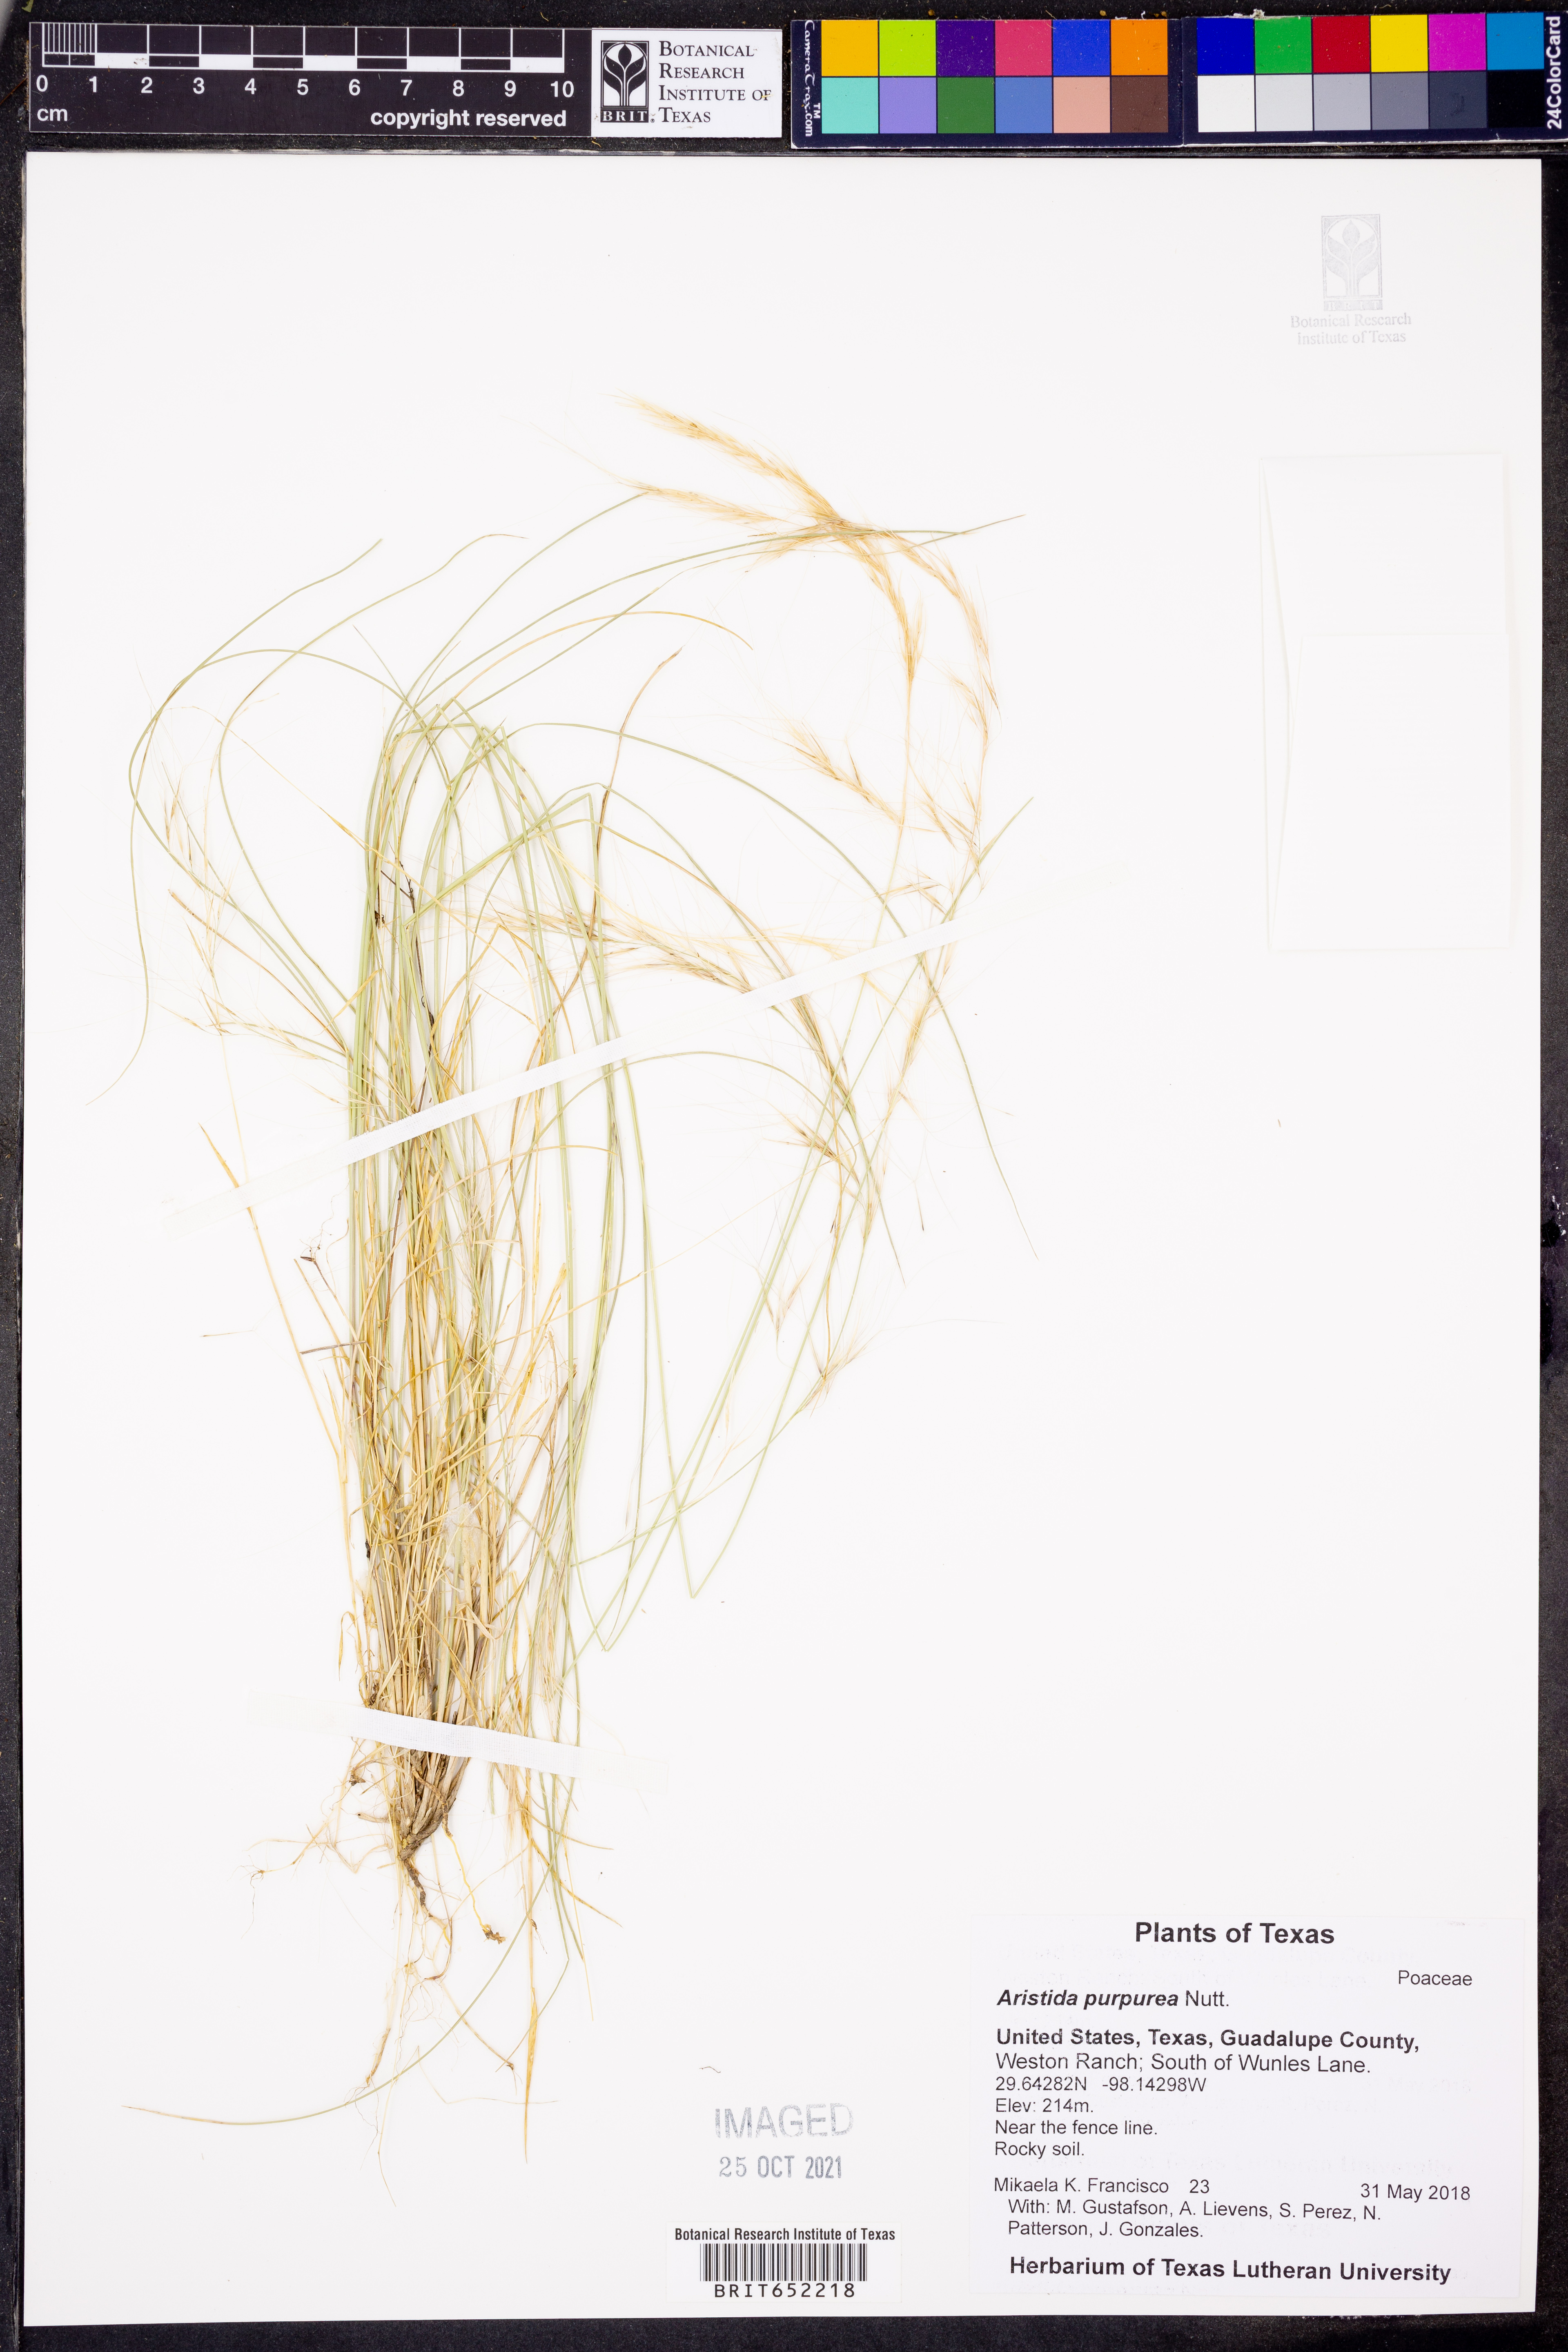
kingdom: Plantae
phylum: Tracheophyta
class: Liliopsida
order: Poales
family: Poaceae
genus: Aristida
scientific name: Aristida purpurea
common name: Purple threeawn
